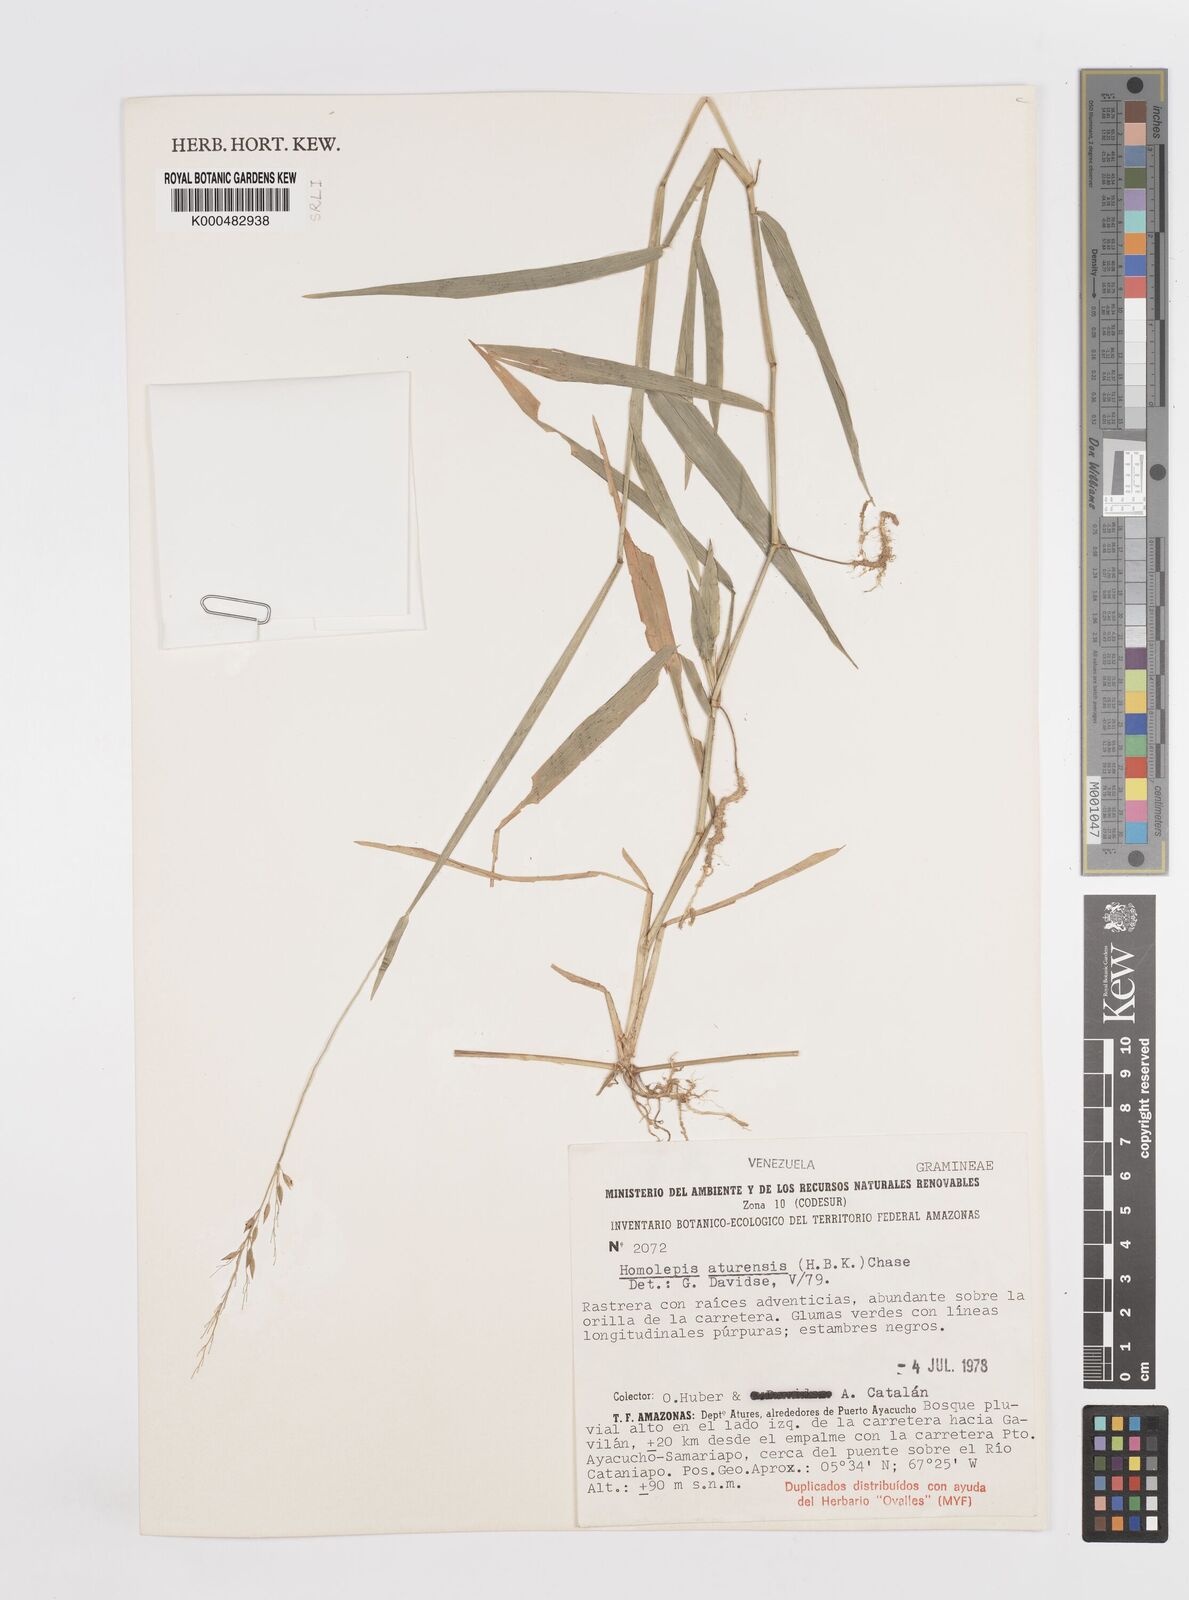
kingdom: Plantae
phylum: Tracheophyta
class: Liliopsida
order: Poales
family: Poaceae
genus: Homolepis
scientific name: Homolepis aturensis
